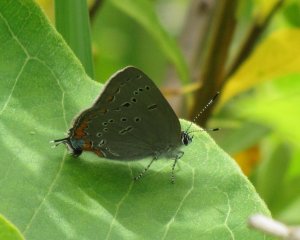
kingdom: Animalia
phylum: Arthropoda
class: Insecta
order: Lepidoptera
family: Lycaenidae
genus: Strymon
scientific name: Strymon acadica
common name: Acadian Hairstreak
